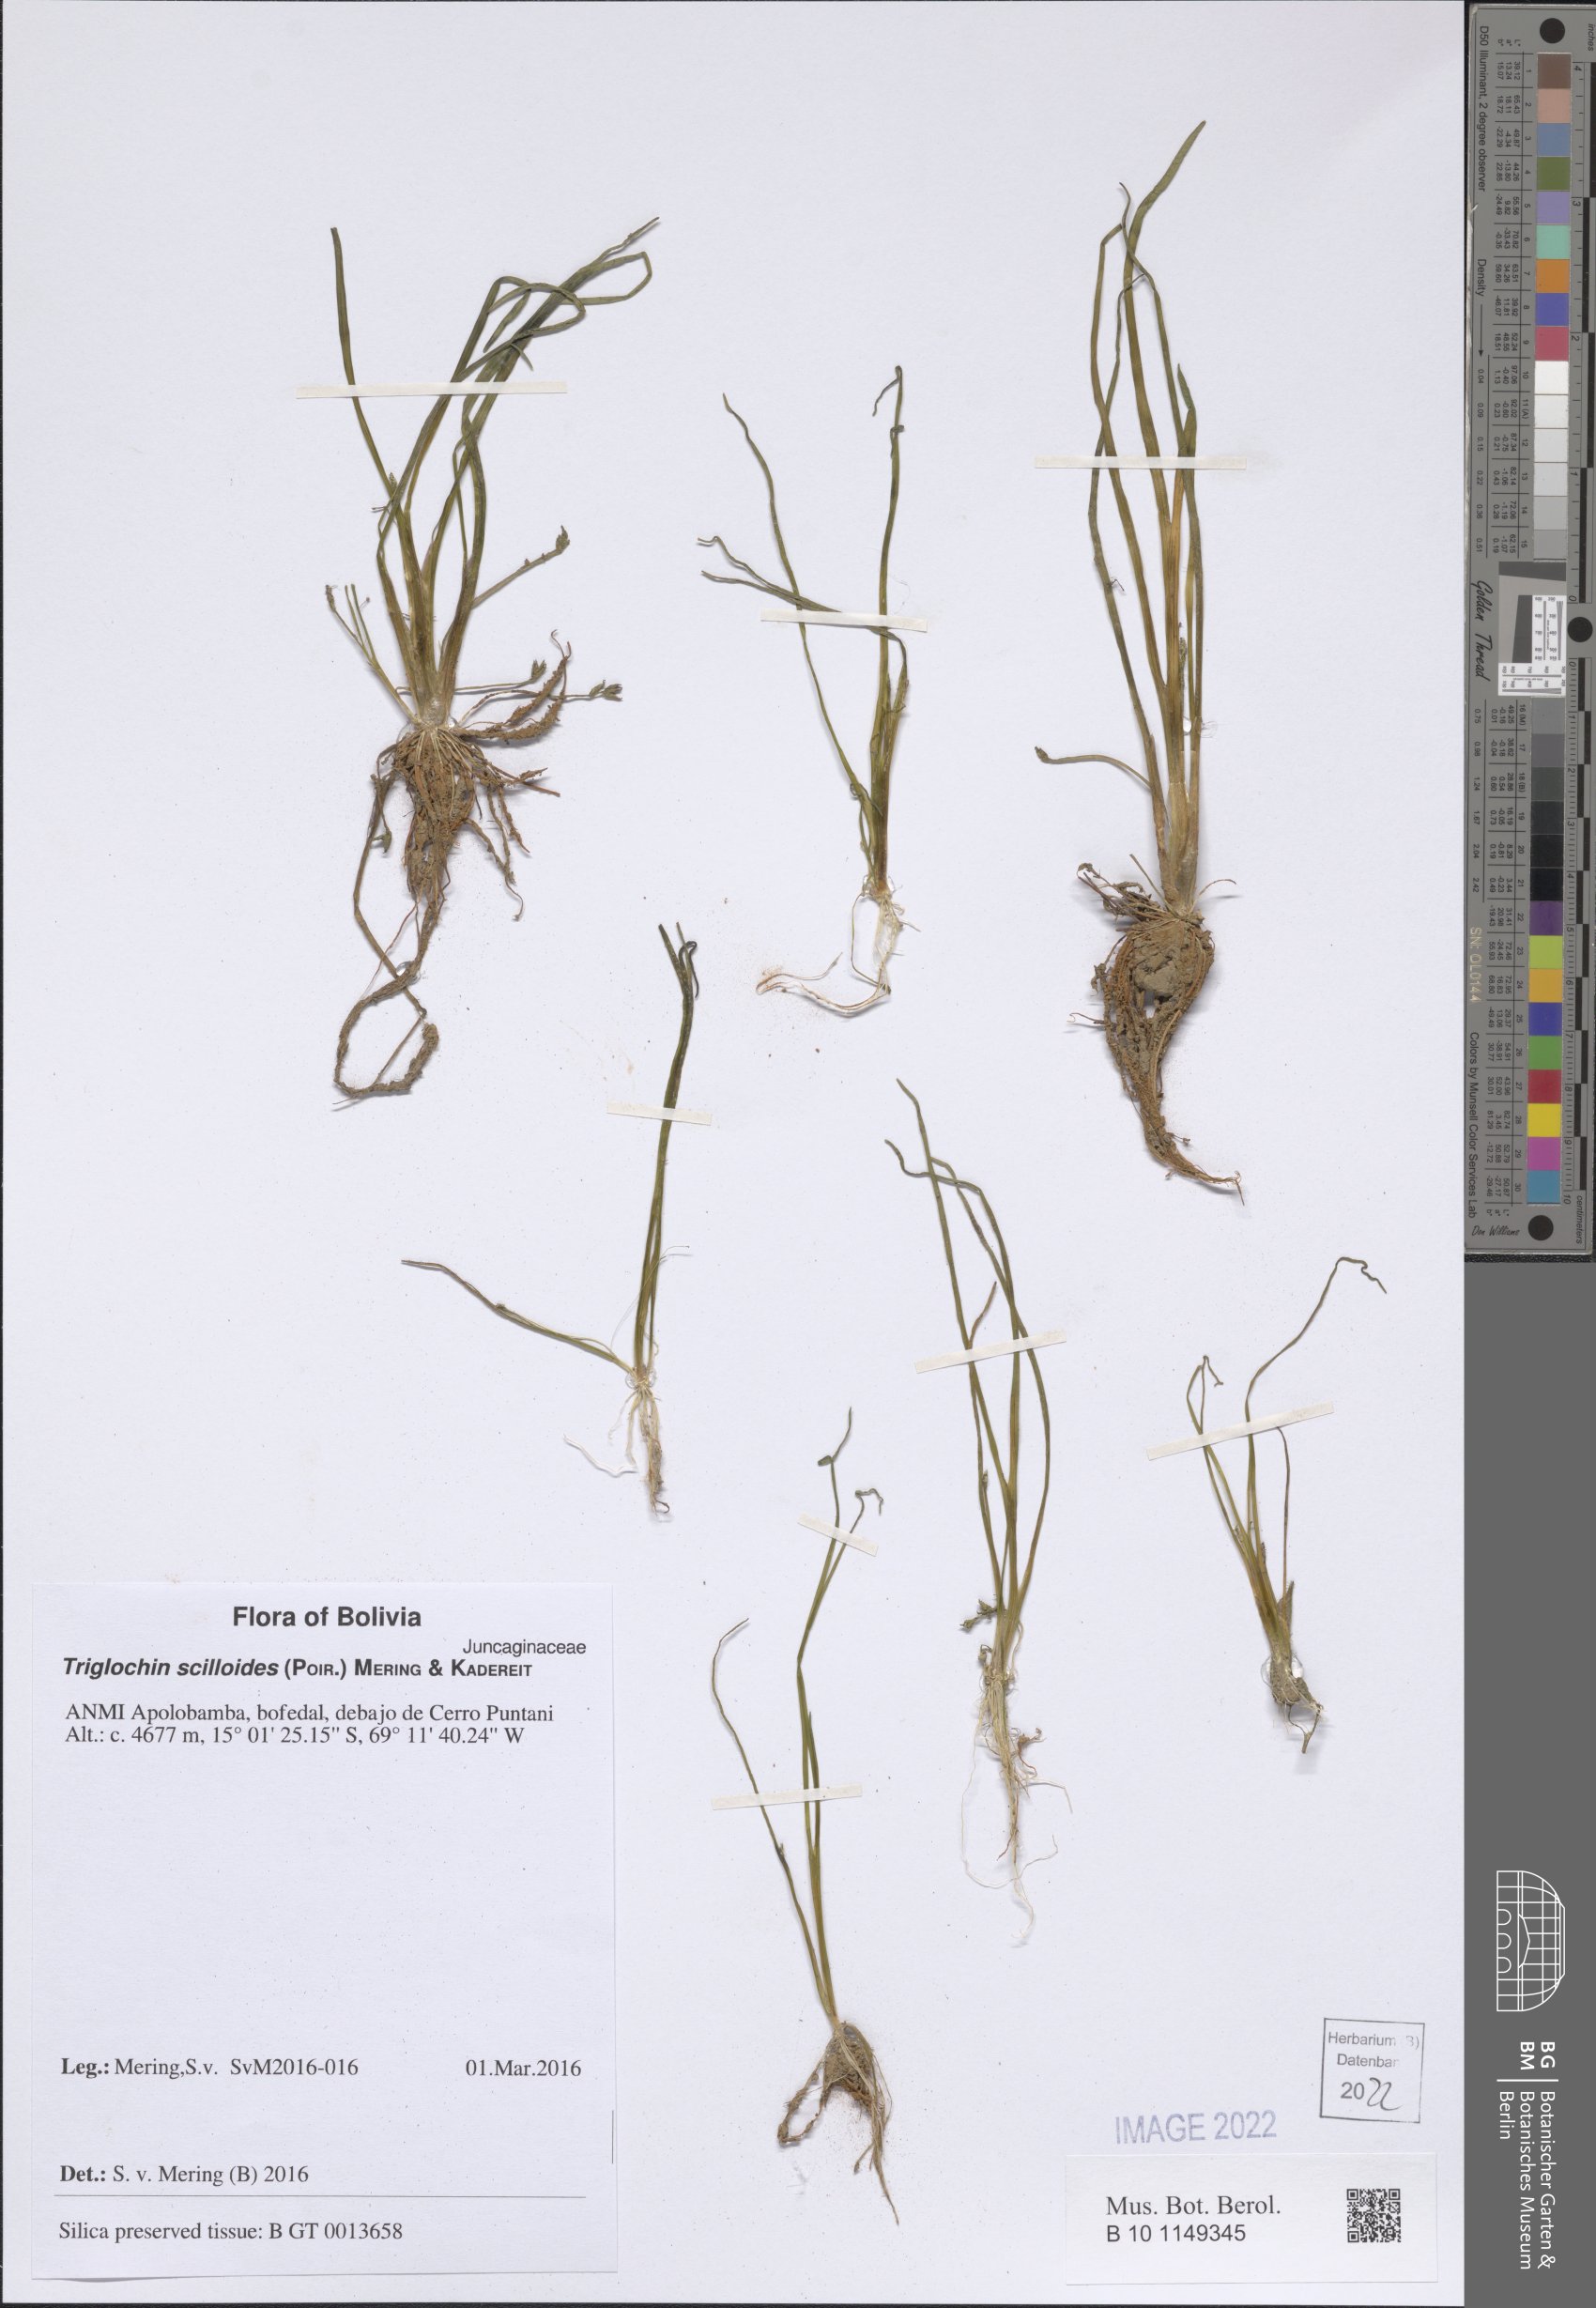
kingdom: Plantae
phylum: Tracheophyta
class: Liliopsida
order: Alismatales
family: Juncaginaceae
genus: Triglochin
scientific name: Triglochin scilloides
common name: Awl-leaved lilaea
